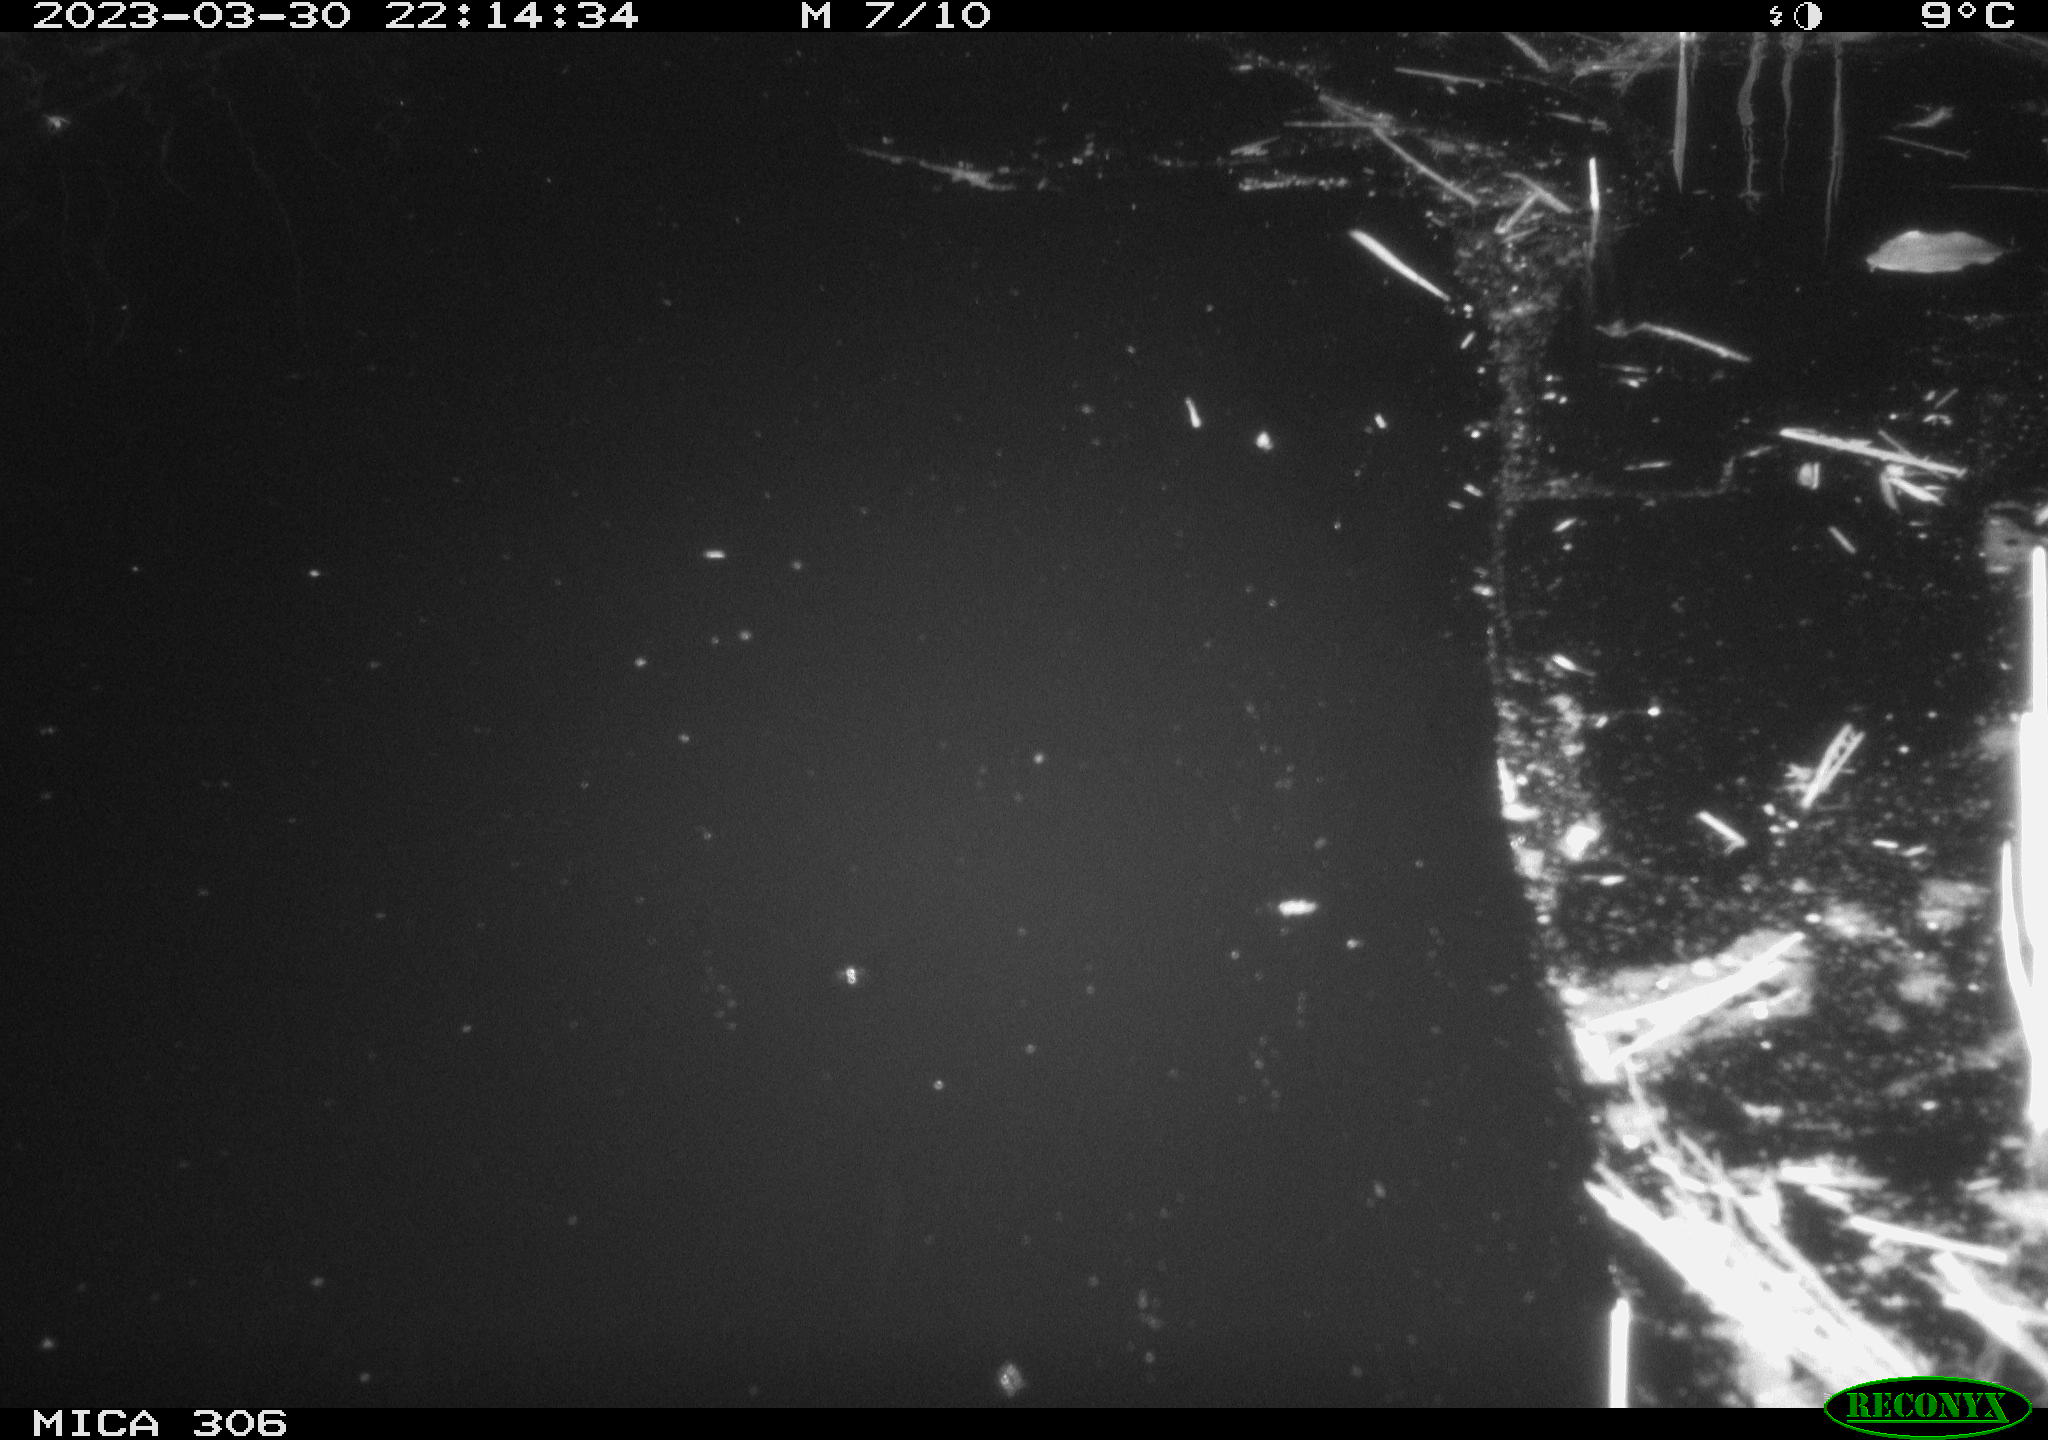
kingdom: Animalia
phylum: Chordata
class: Mammalia
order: Rodentia
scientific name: Rodentia
